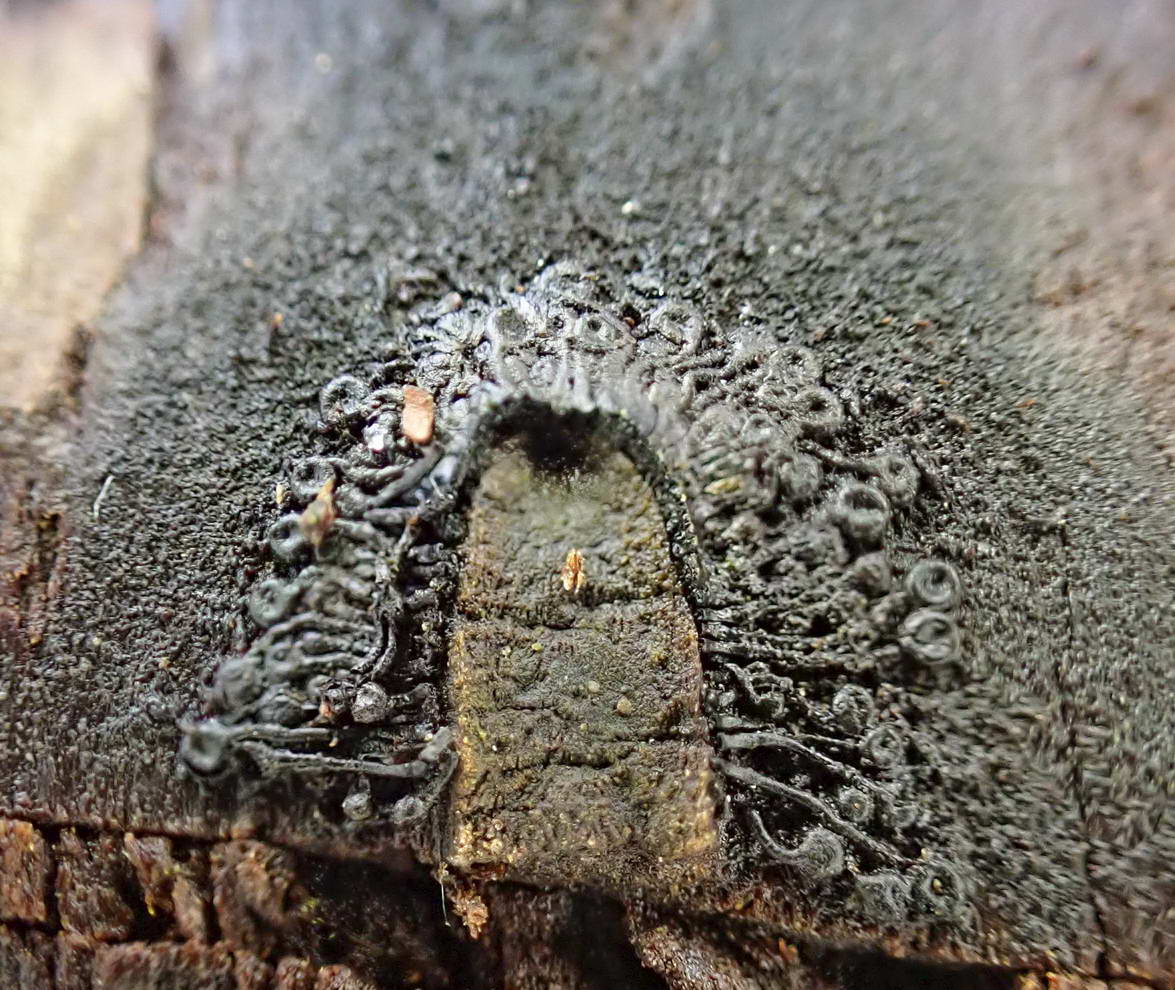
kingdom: Fungi
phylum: Ascomycota
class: Sordariomycetes
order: Calosphaeriales
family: Calosphaeriaceae
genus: Calosphaeria
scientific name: Calosphaeria pulchella
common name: smuk slyngkerne
